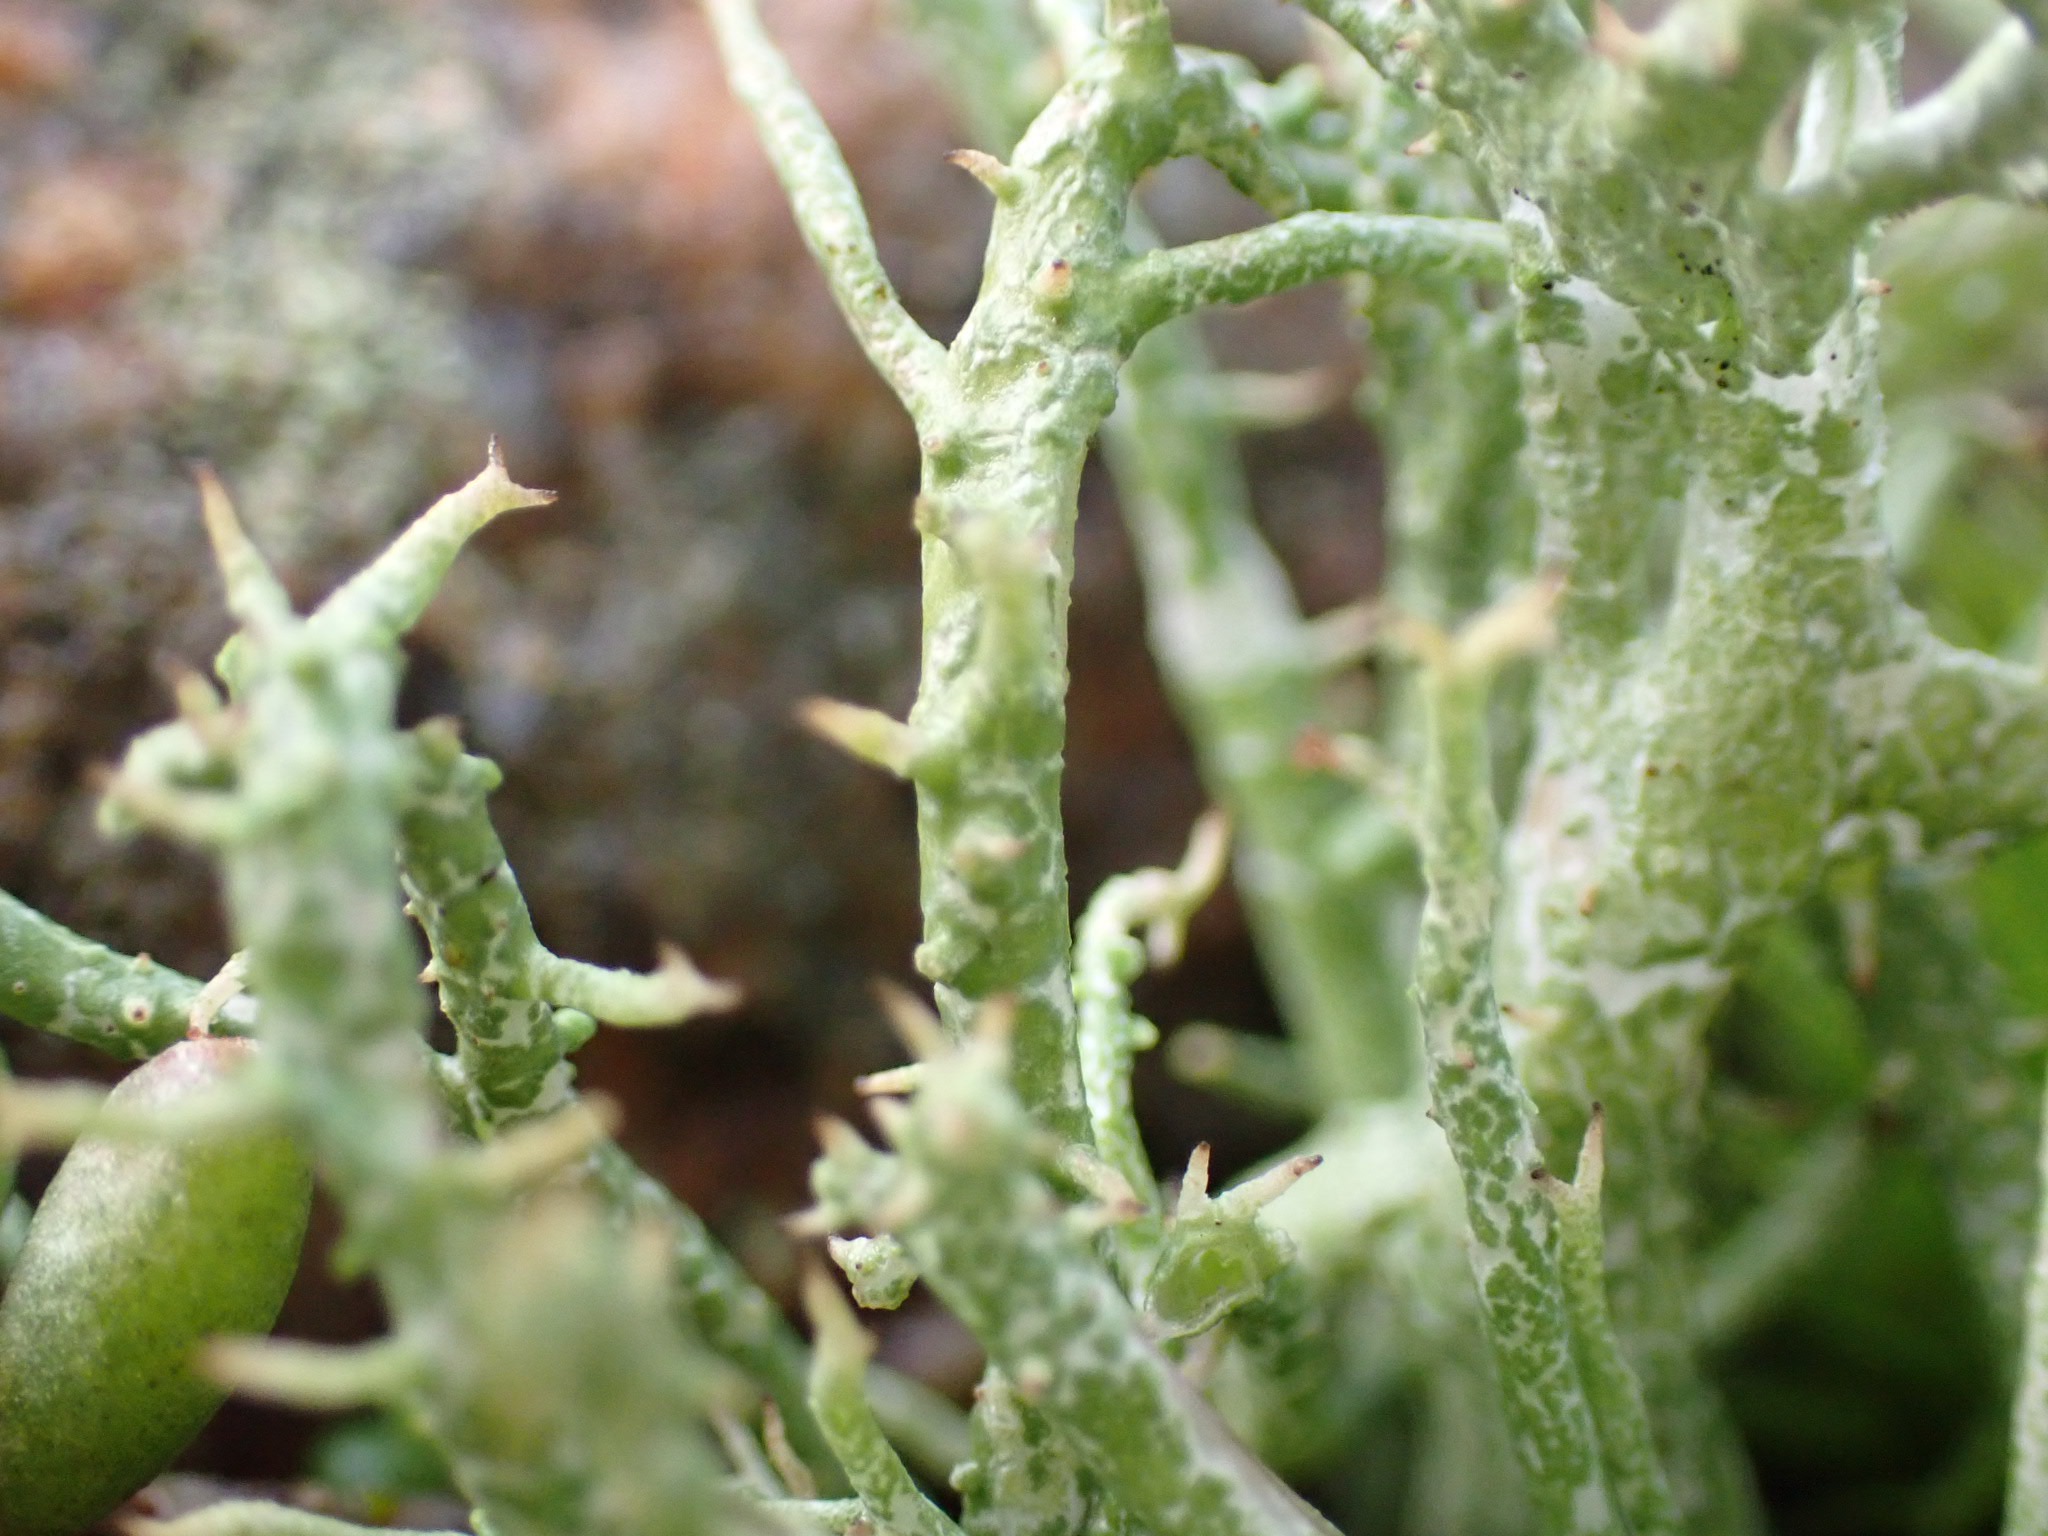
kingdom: Fungi
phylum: Ascomycota
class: Lecanoromycetes
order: Lecanorales
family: Cladoniaceae
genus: Cladonia
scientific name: Cladonia rangiformis
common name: spættet bægerlav
